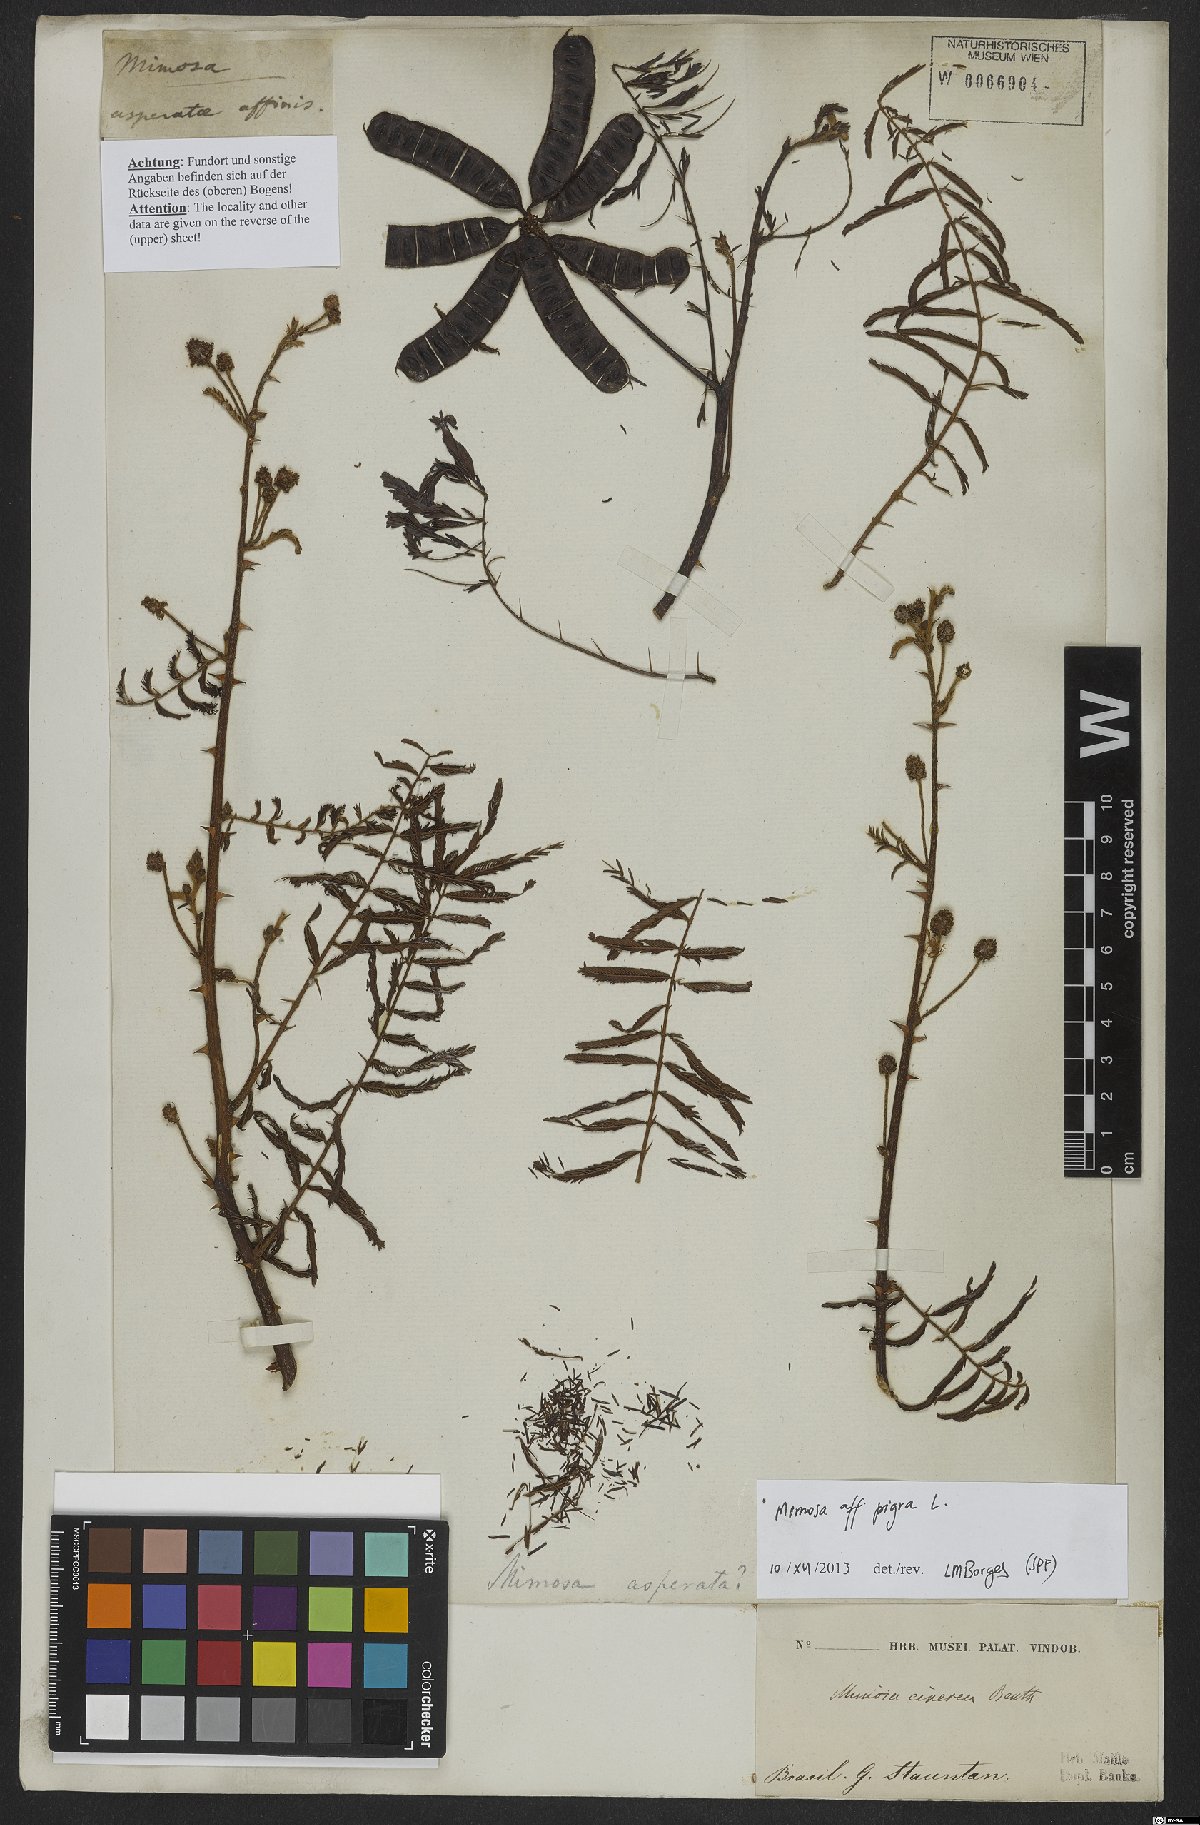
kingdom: Plantae
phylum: Tracheophyta
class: Magnoliopsida
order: Fabales
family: Fabaceae
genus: Mimosa
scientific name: Mimosa pigra
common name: Black mimosa
